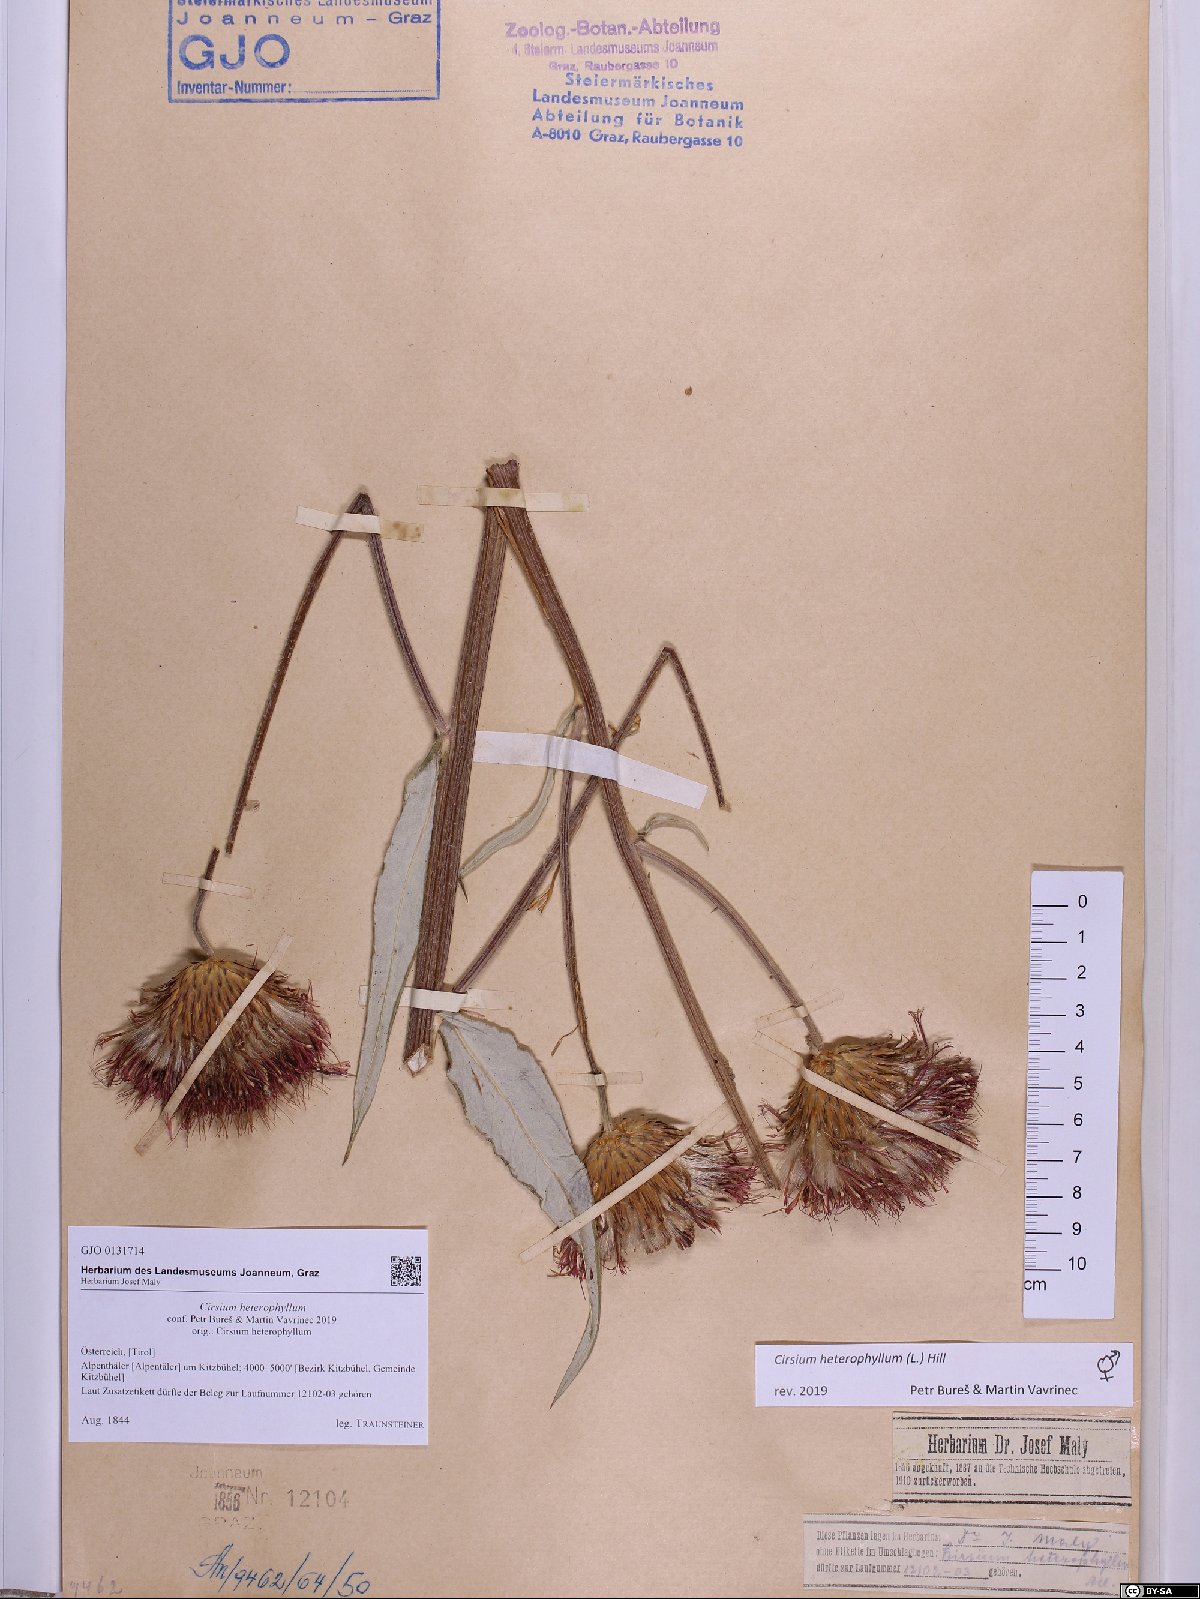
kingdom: Plantae
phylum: Tracheophyta
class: Magnoliopsida
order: Asterales
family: Asteraceae
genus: Cirsium
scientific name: Cirsium heterophyllum
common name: Melancholy thistle
